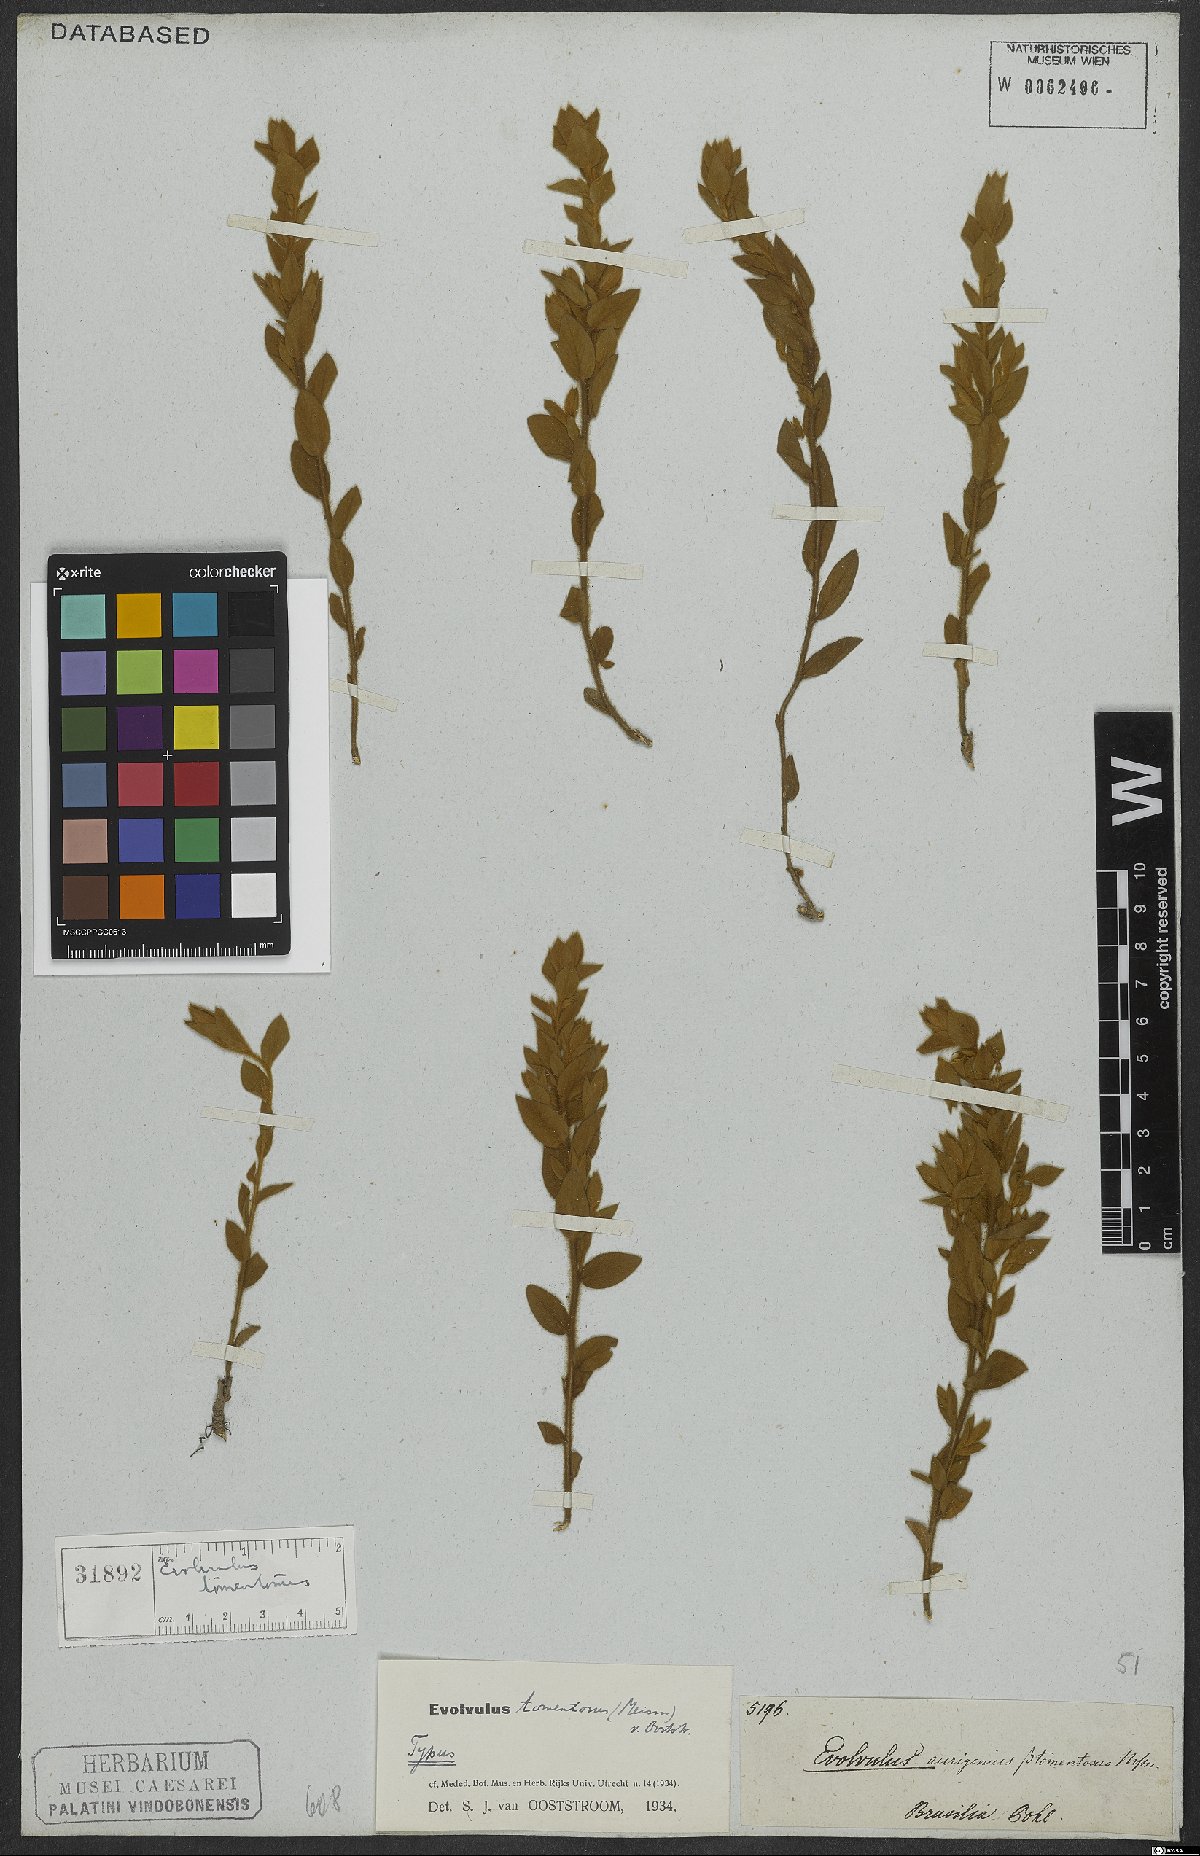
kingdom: Plantae
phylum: Tracheophyta
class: Magnoliopsida
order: Solanales
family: Convolvulaceae
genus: Evolvulus
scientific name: Evolvulus tomentosus
